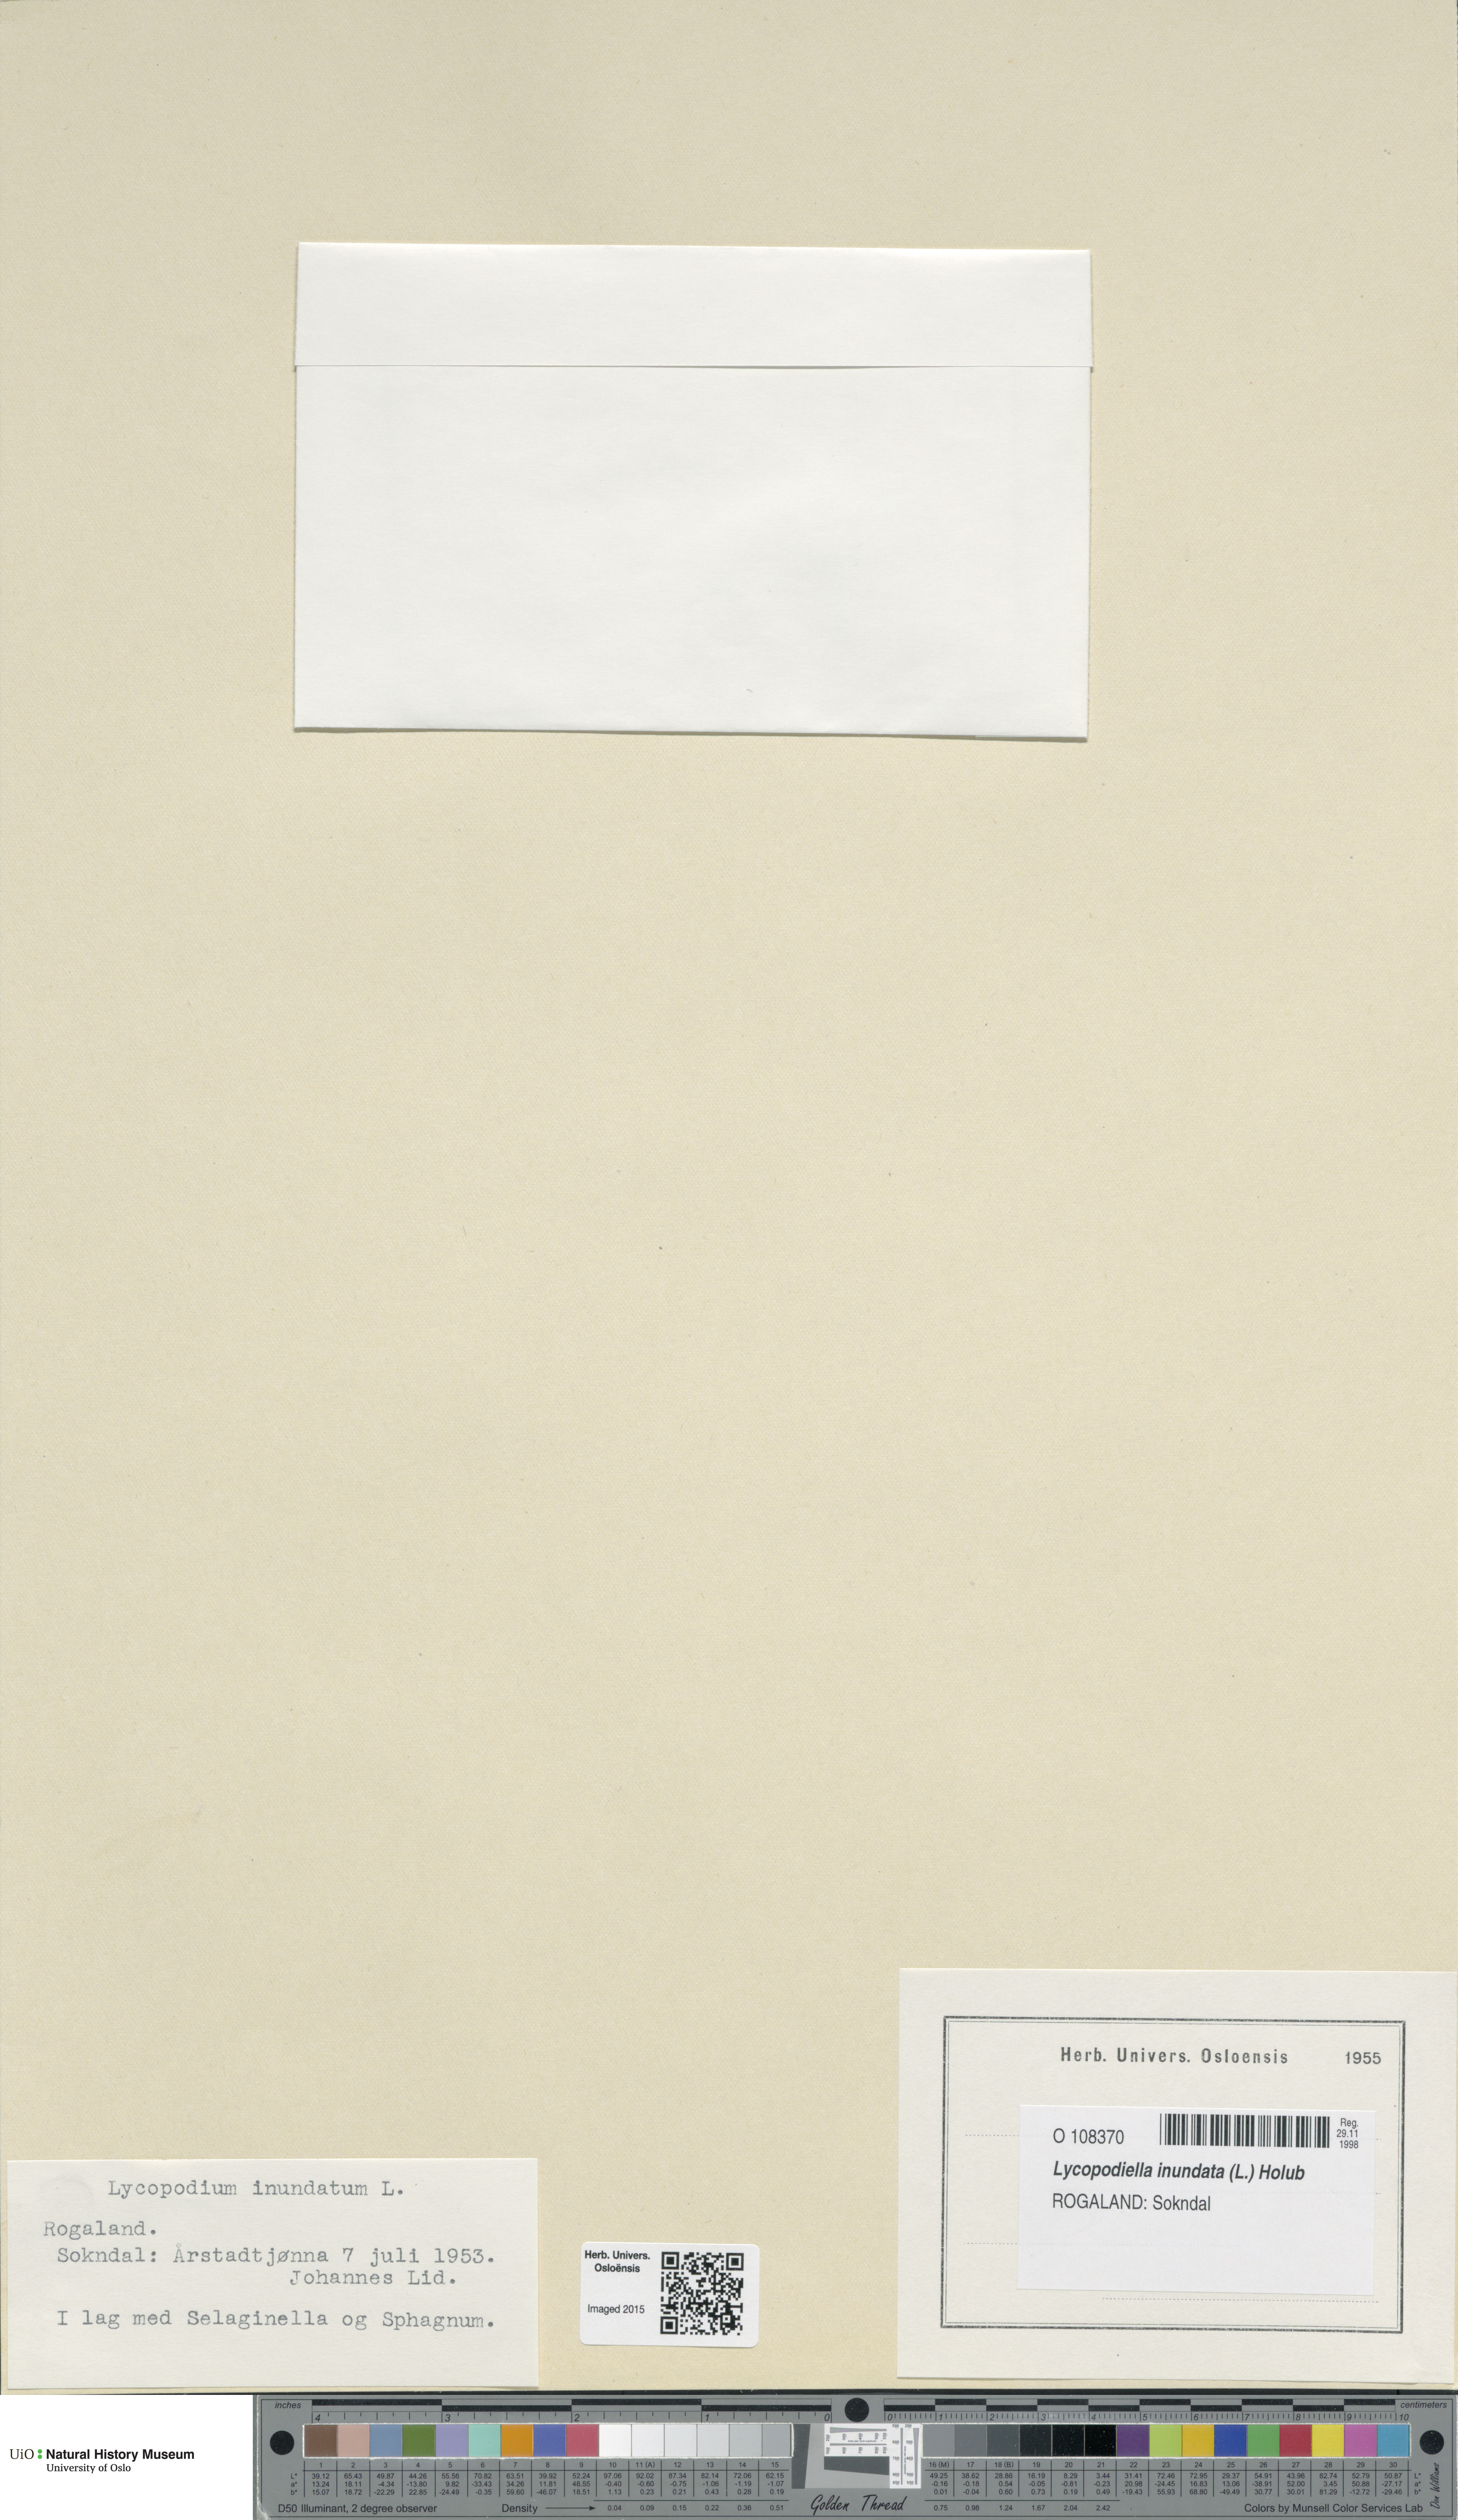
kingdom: Plantae
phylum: Tracheophyta
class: Lycopodiopsida
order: Lycopodiales
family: Lycopodiaceae
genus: Lycopodiella
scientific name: Lycopodiella inundata
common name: Marsh clubmoss
